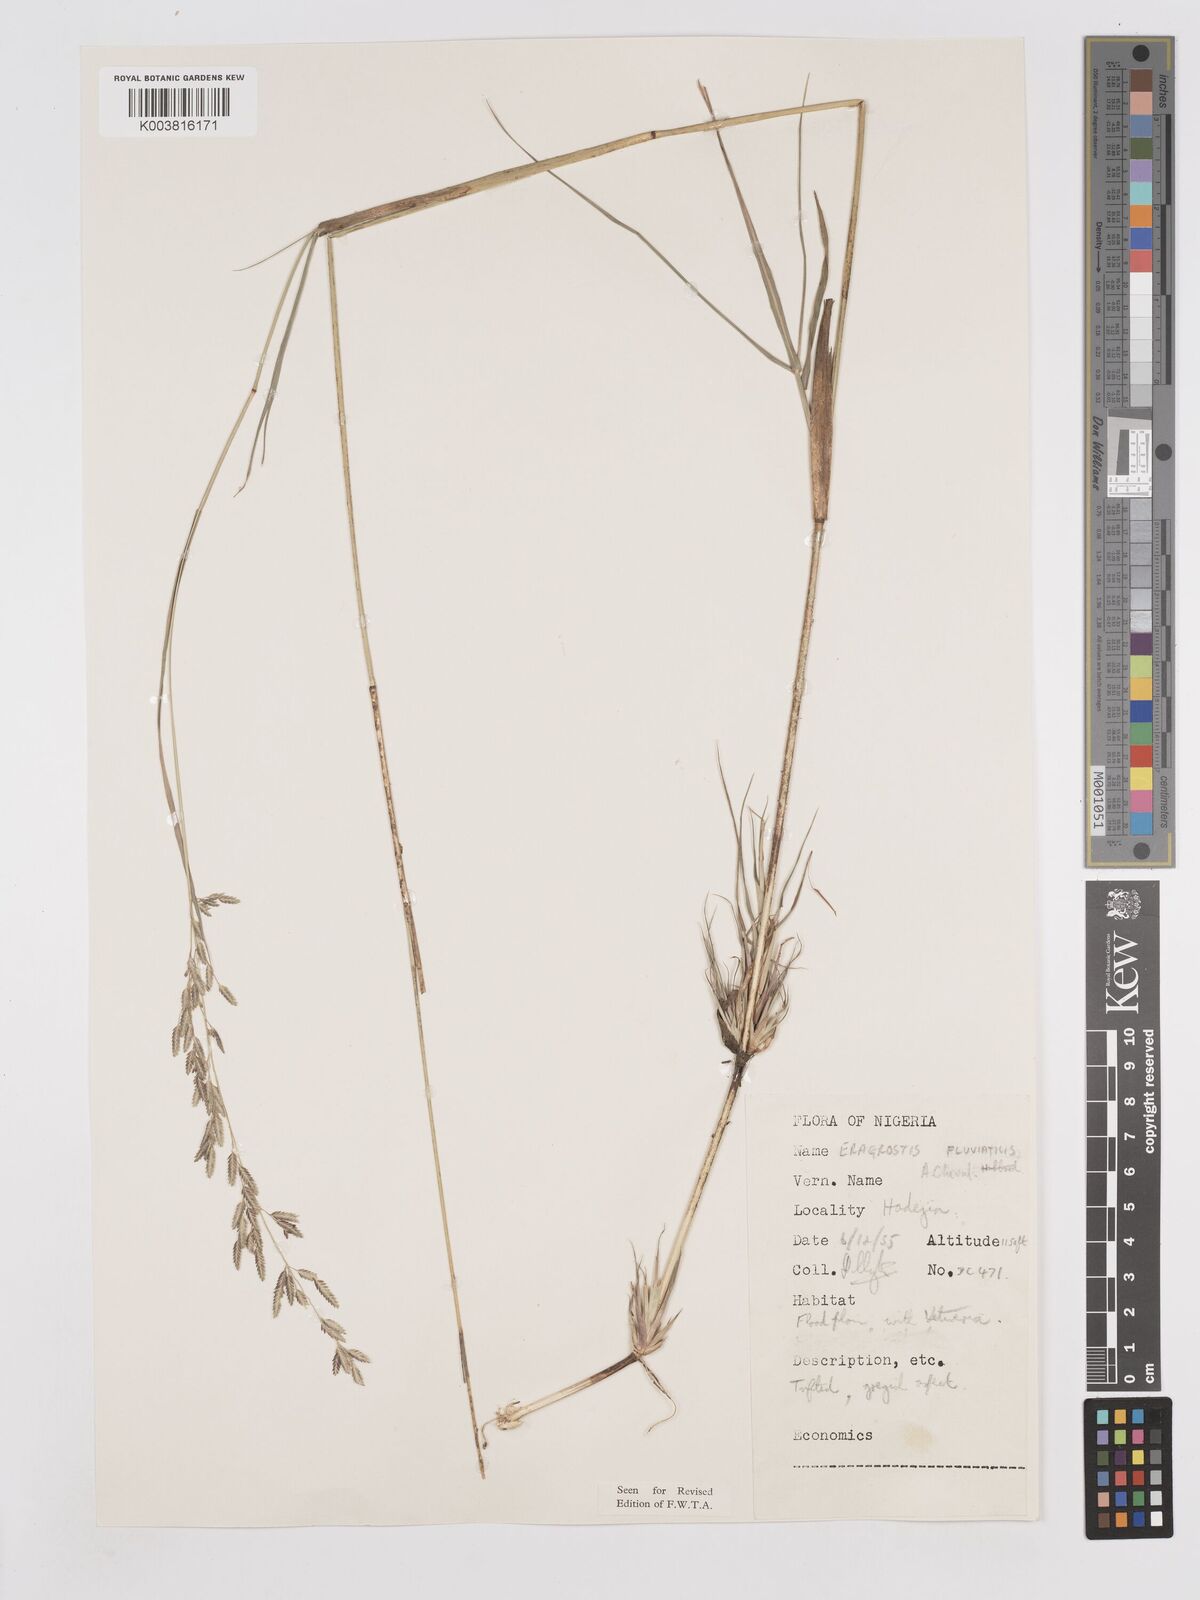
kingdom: Plantae
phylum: Tracheophyta
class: Liliopsida
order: Poales
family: Poaceae
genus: Eragrostis
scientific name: Eragrostis barteri
